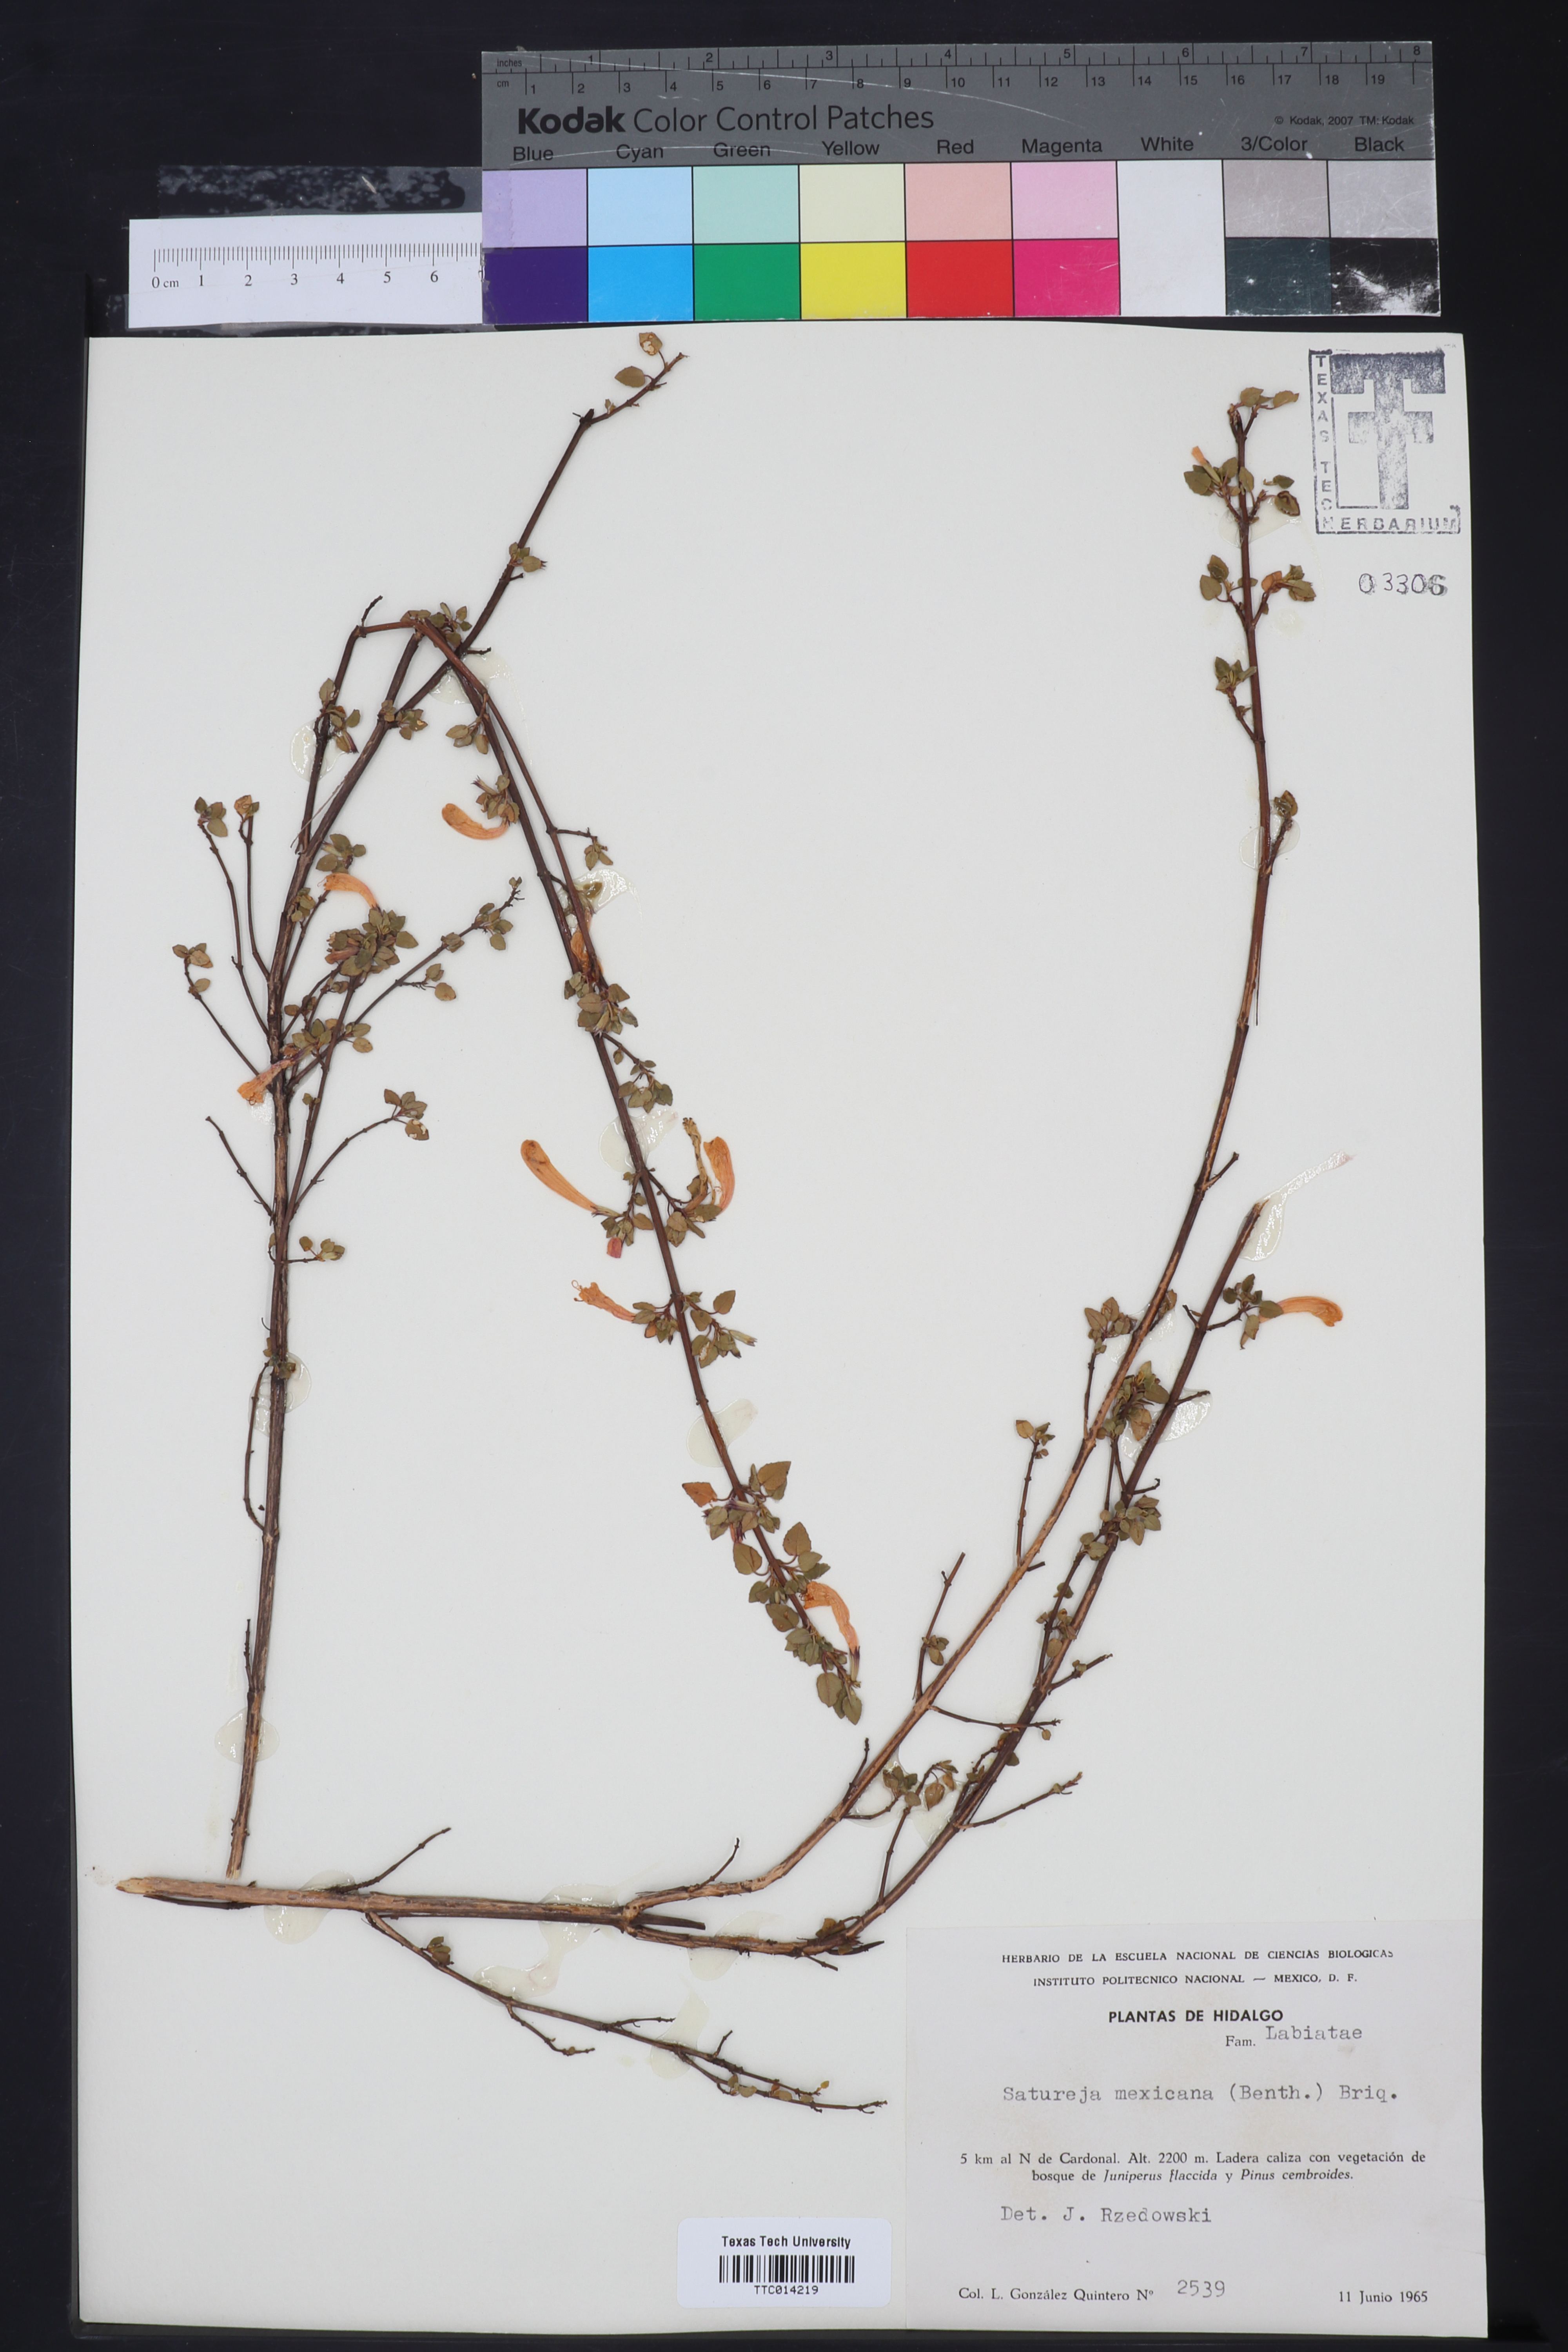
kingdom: Plantae
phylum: Tracheophyta
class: Magnoliopsida
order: Lamiales
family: Lamiaceae
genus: Clinopodium
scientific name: Clinopodium mexicanum
